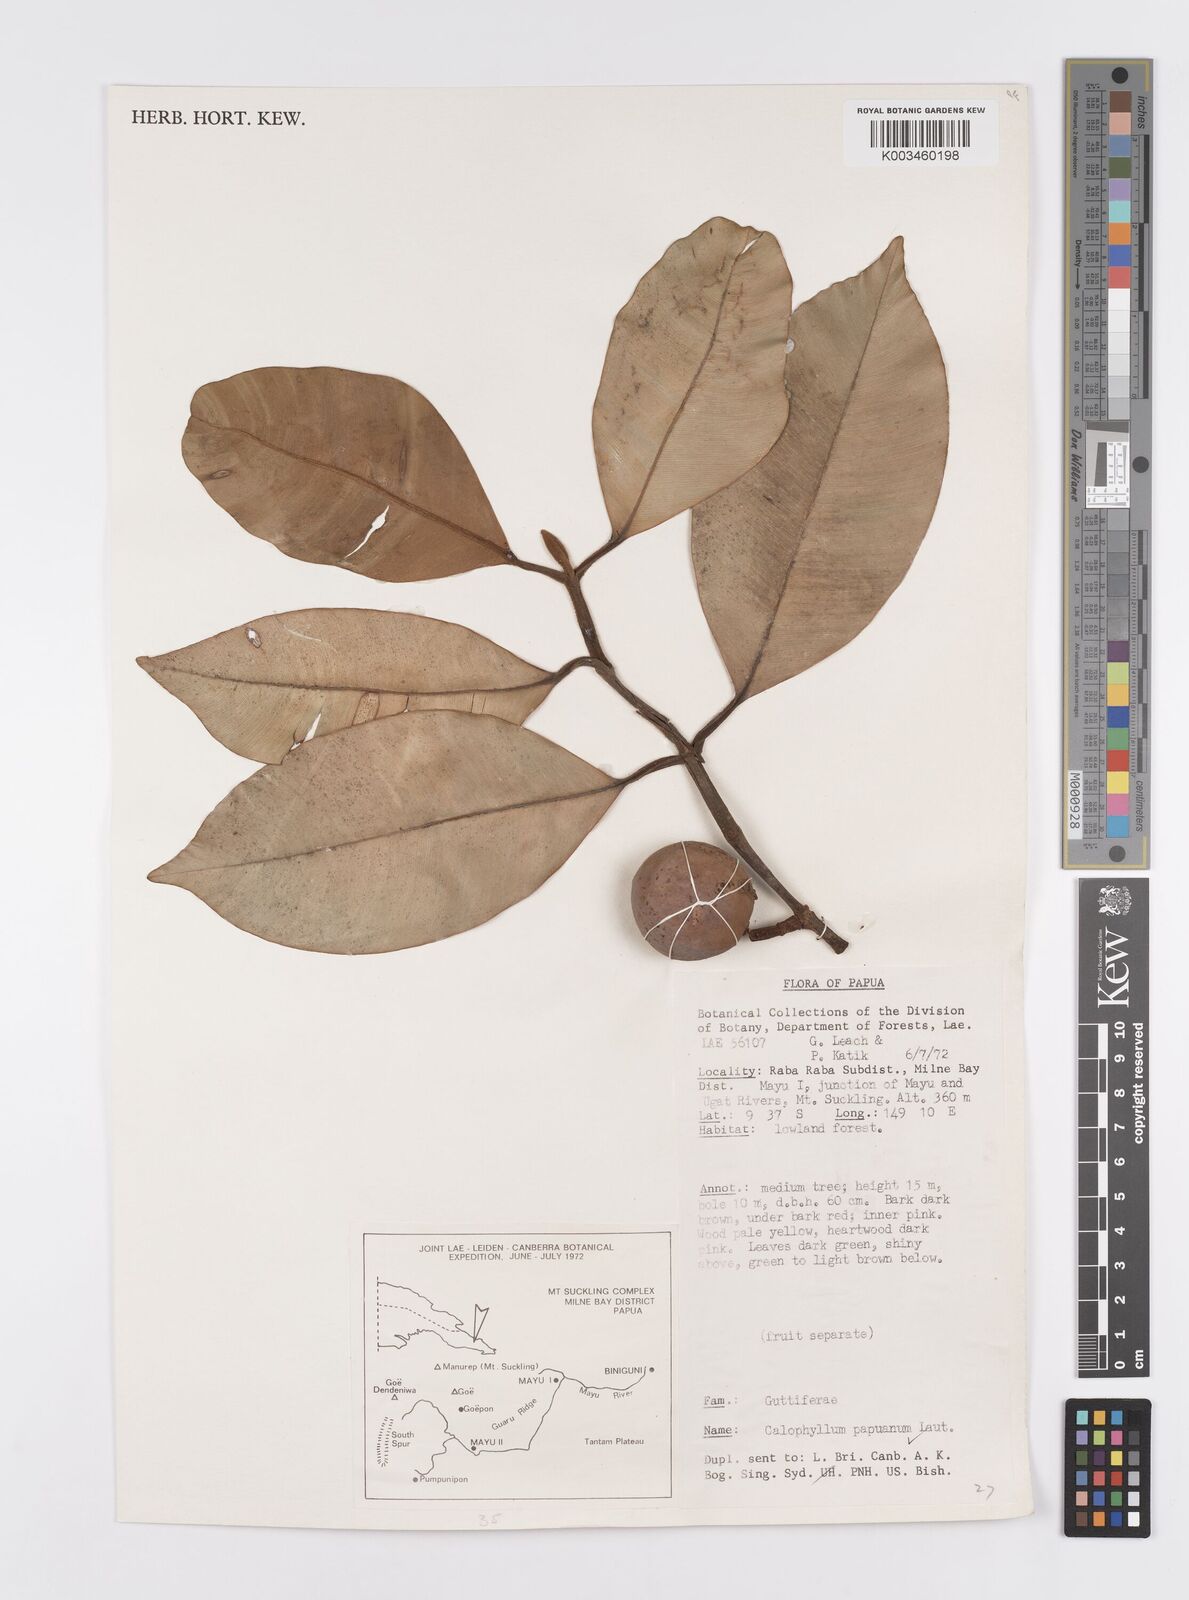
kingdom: Plantae
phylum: Tracheophyta
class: Magnoliopsida
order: Malpighiales
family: Calophyllaceae
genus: Calophyllum
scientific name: Calophyllum papuanum
